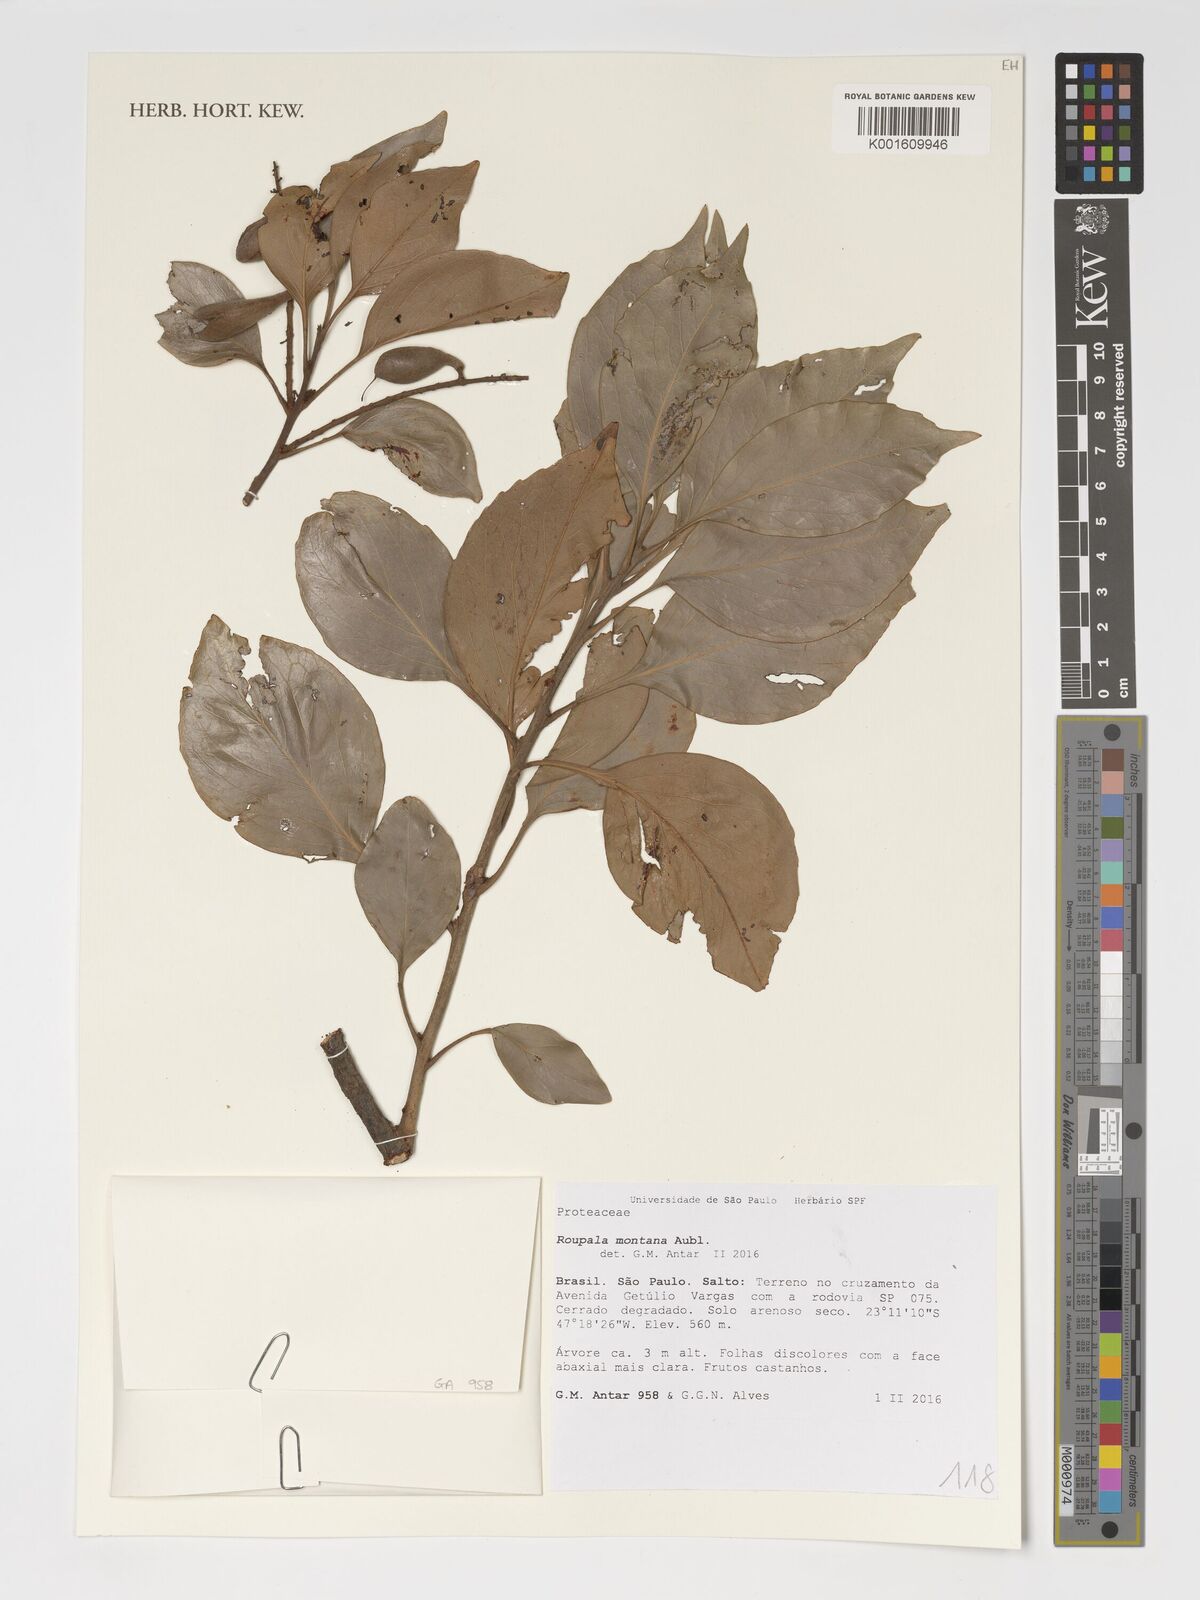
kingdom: Plantae
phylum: Tracheophyta
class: Magnoliopsida
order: Proteales
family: Proteaceae
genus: Roupala
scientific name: Roupala montana
